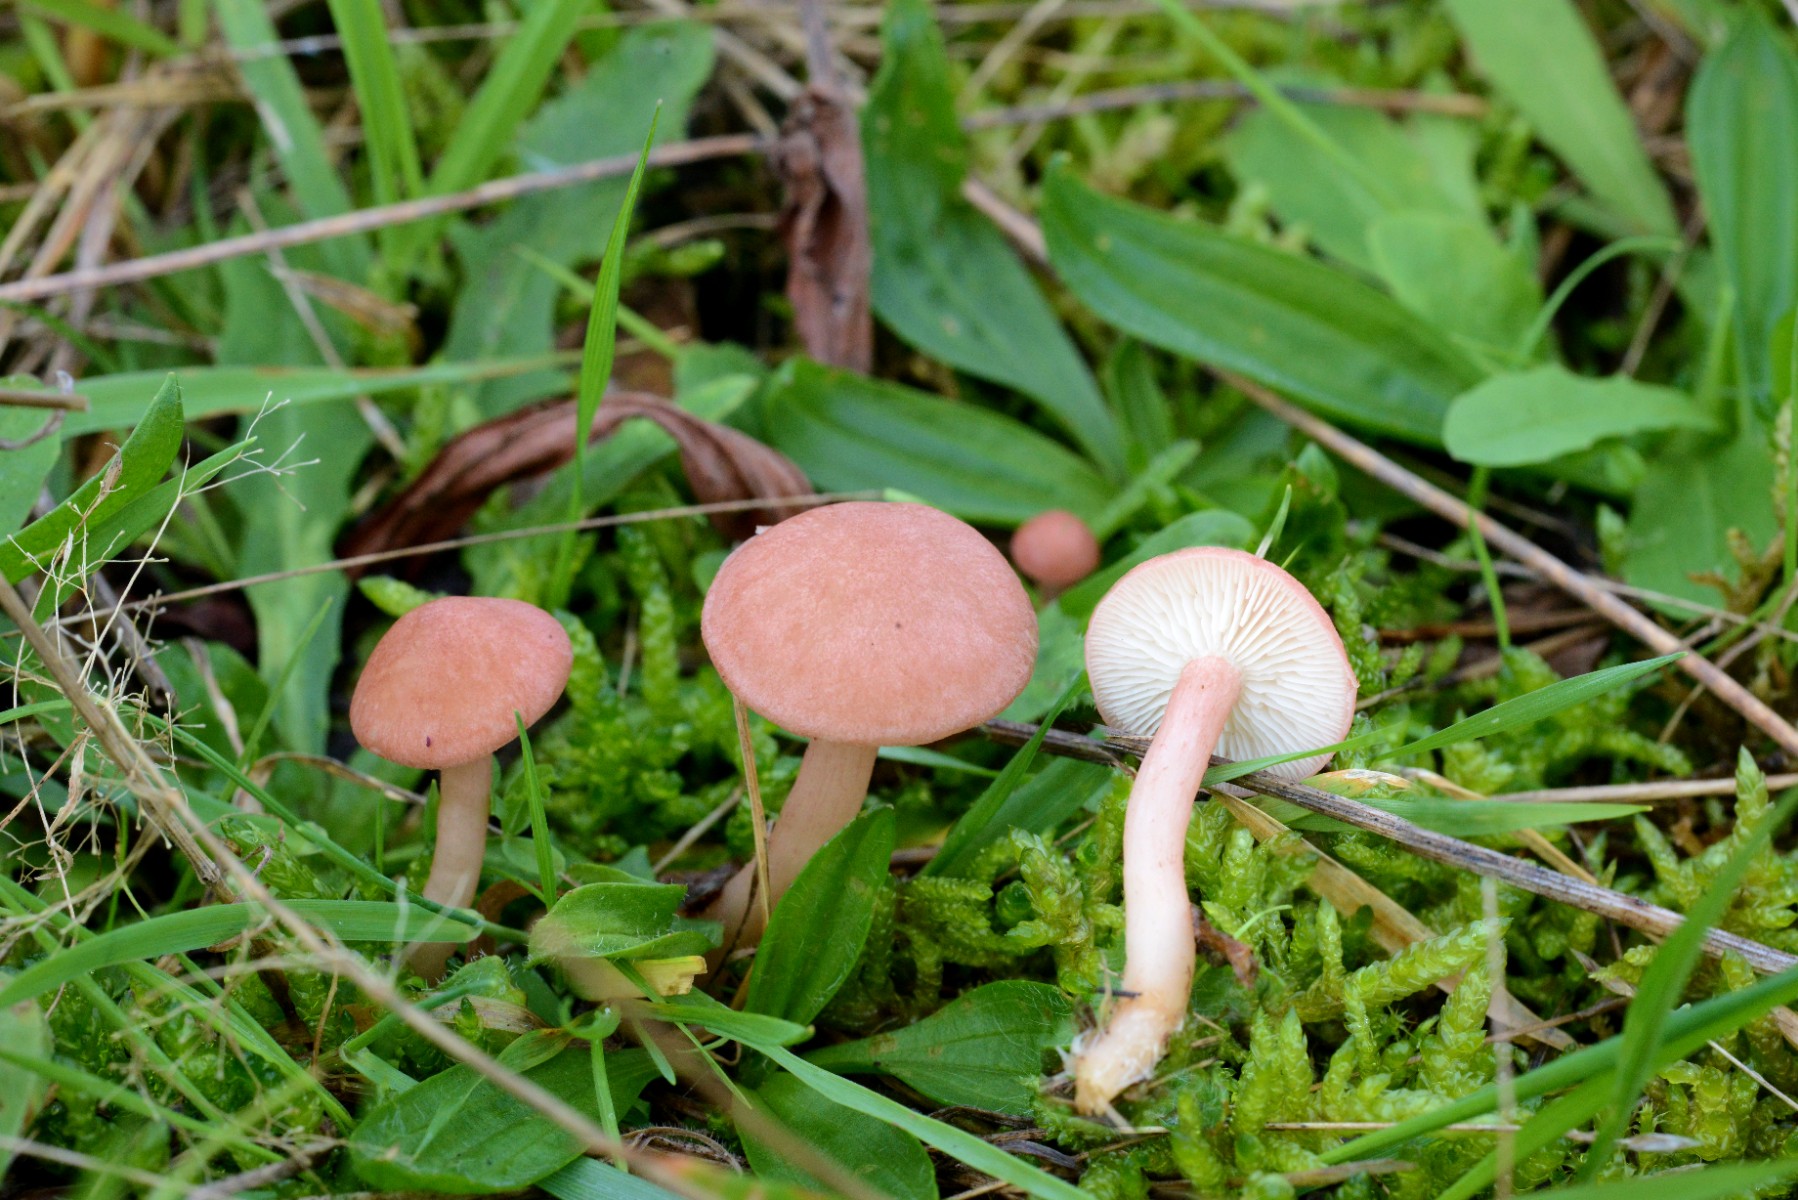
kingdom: Fungi
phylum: Basidiomycota
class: Agaricomycetes
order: Agaricales
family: Lyophyllaceae
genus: Calocybe
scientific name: Calocybe carnea
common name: rosa fagerhat
